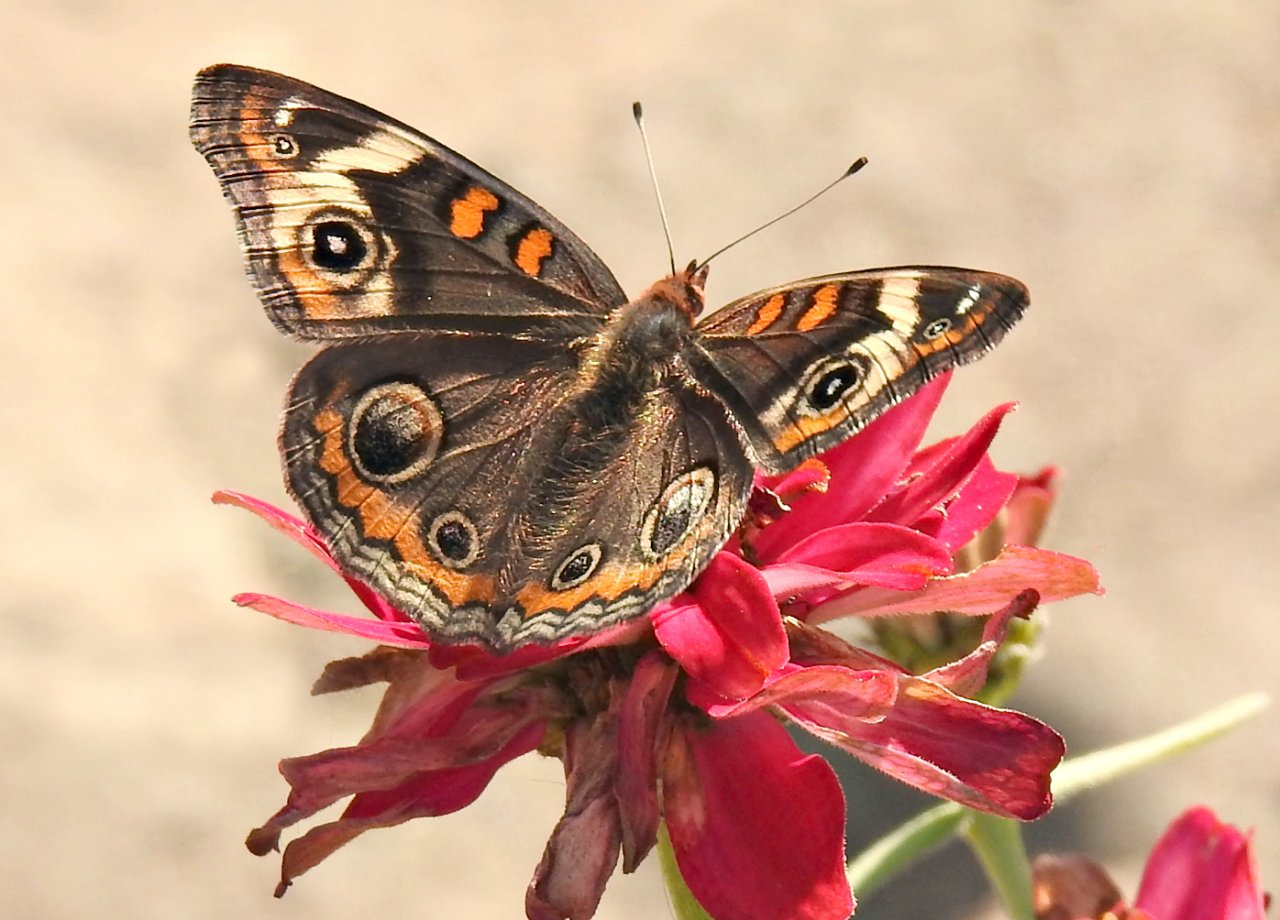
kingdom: Animalia
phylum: Arthropoda
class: Insecta
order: Lepidoptera
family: Nymphalidae
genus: Junonia
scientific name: Junonia coenia
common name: Common Buckeye
